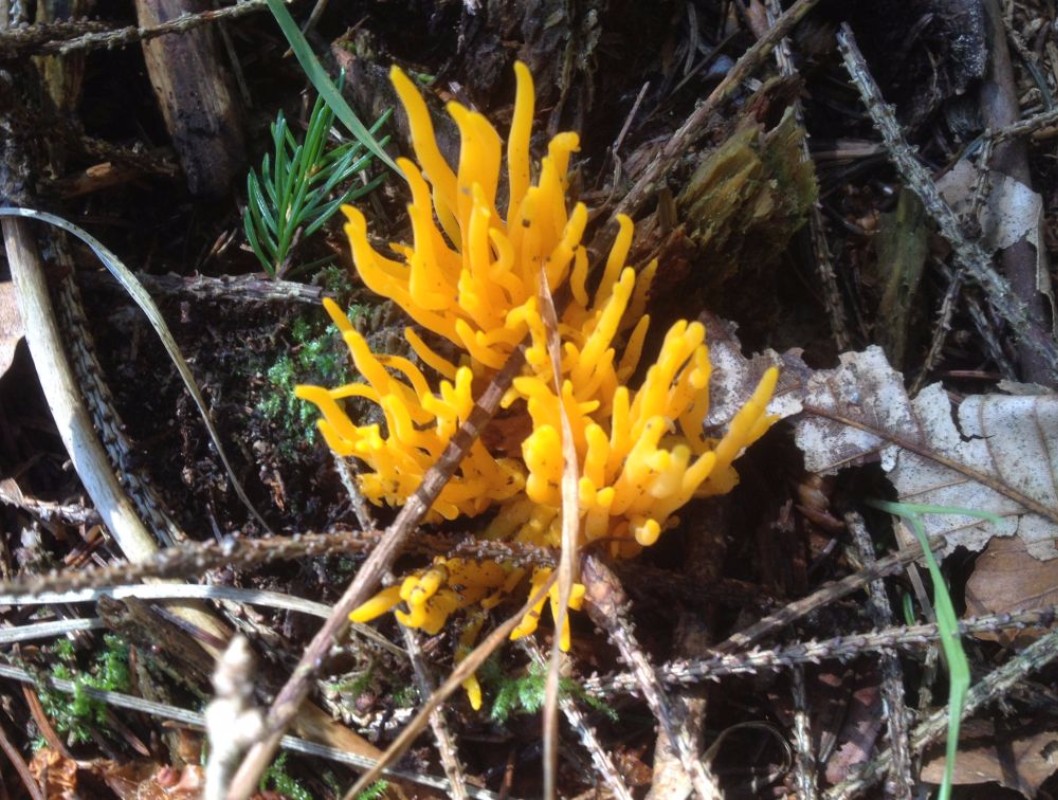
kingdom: Fungi
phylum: Basidiomycota
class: Dacrymycetes
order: Dacrymycetales
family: Dacrymycetaceae
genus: Calocera
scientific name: Calocera viscosa
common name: almindelig guldgaffel
